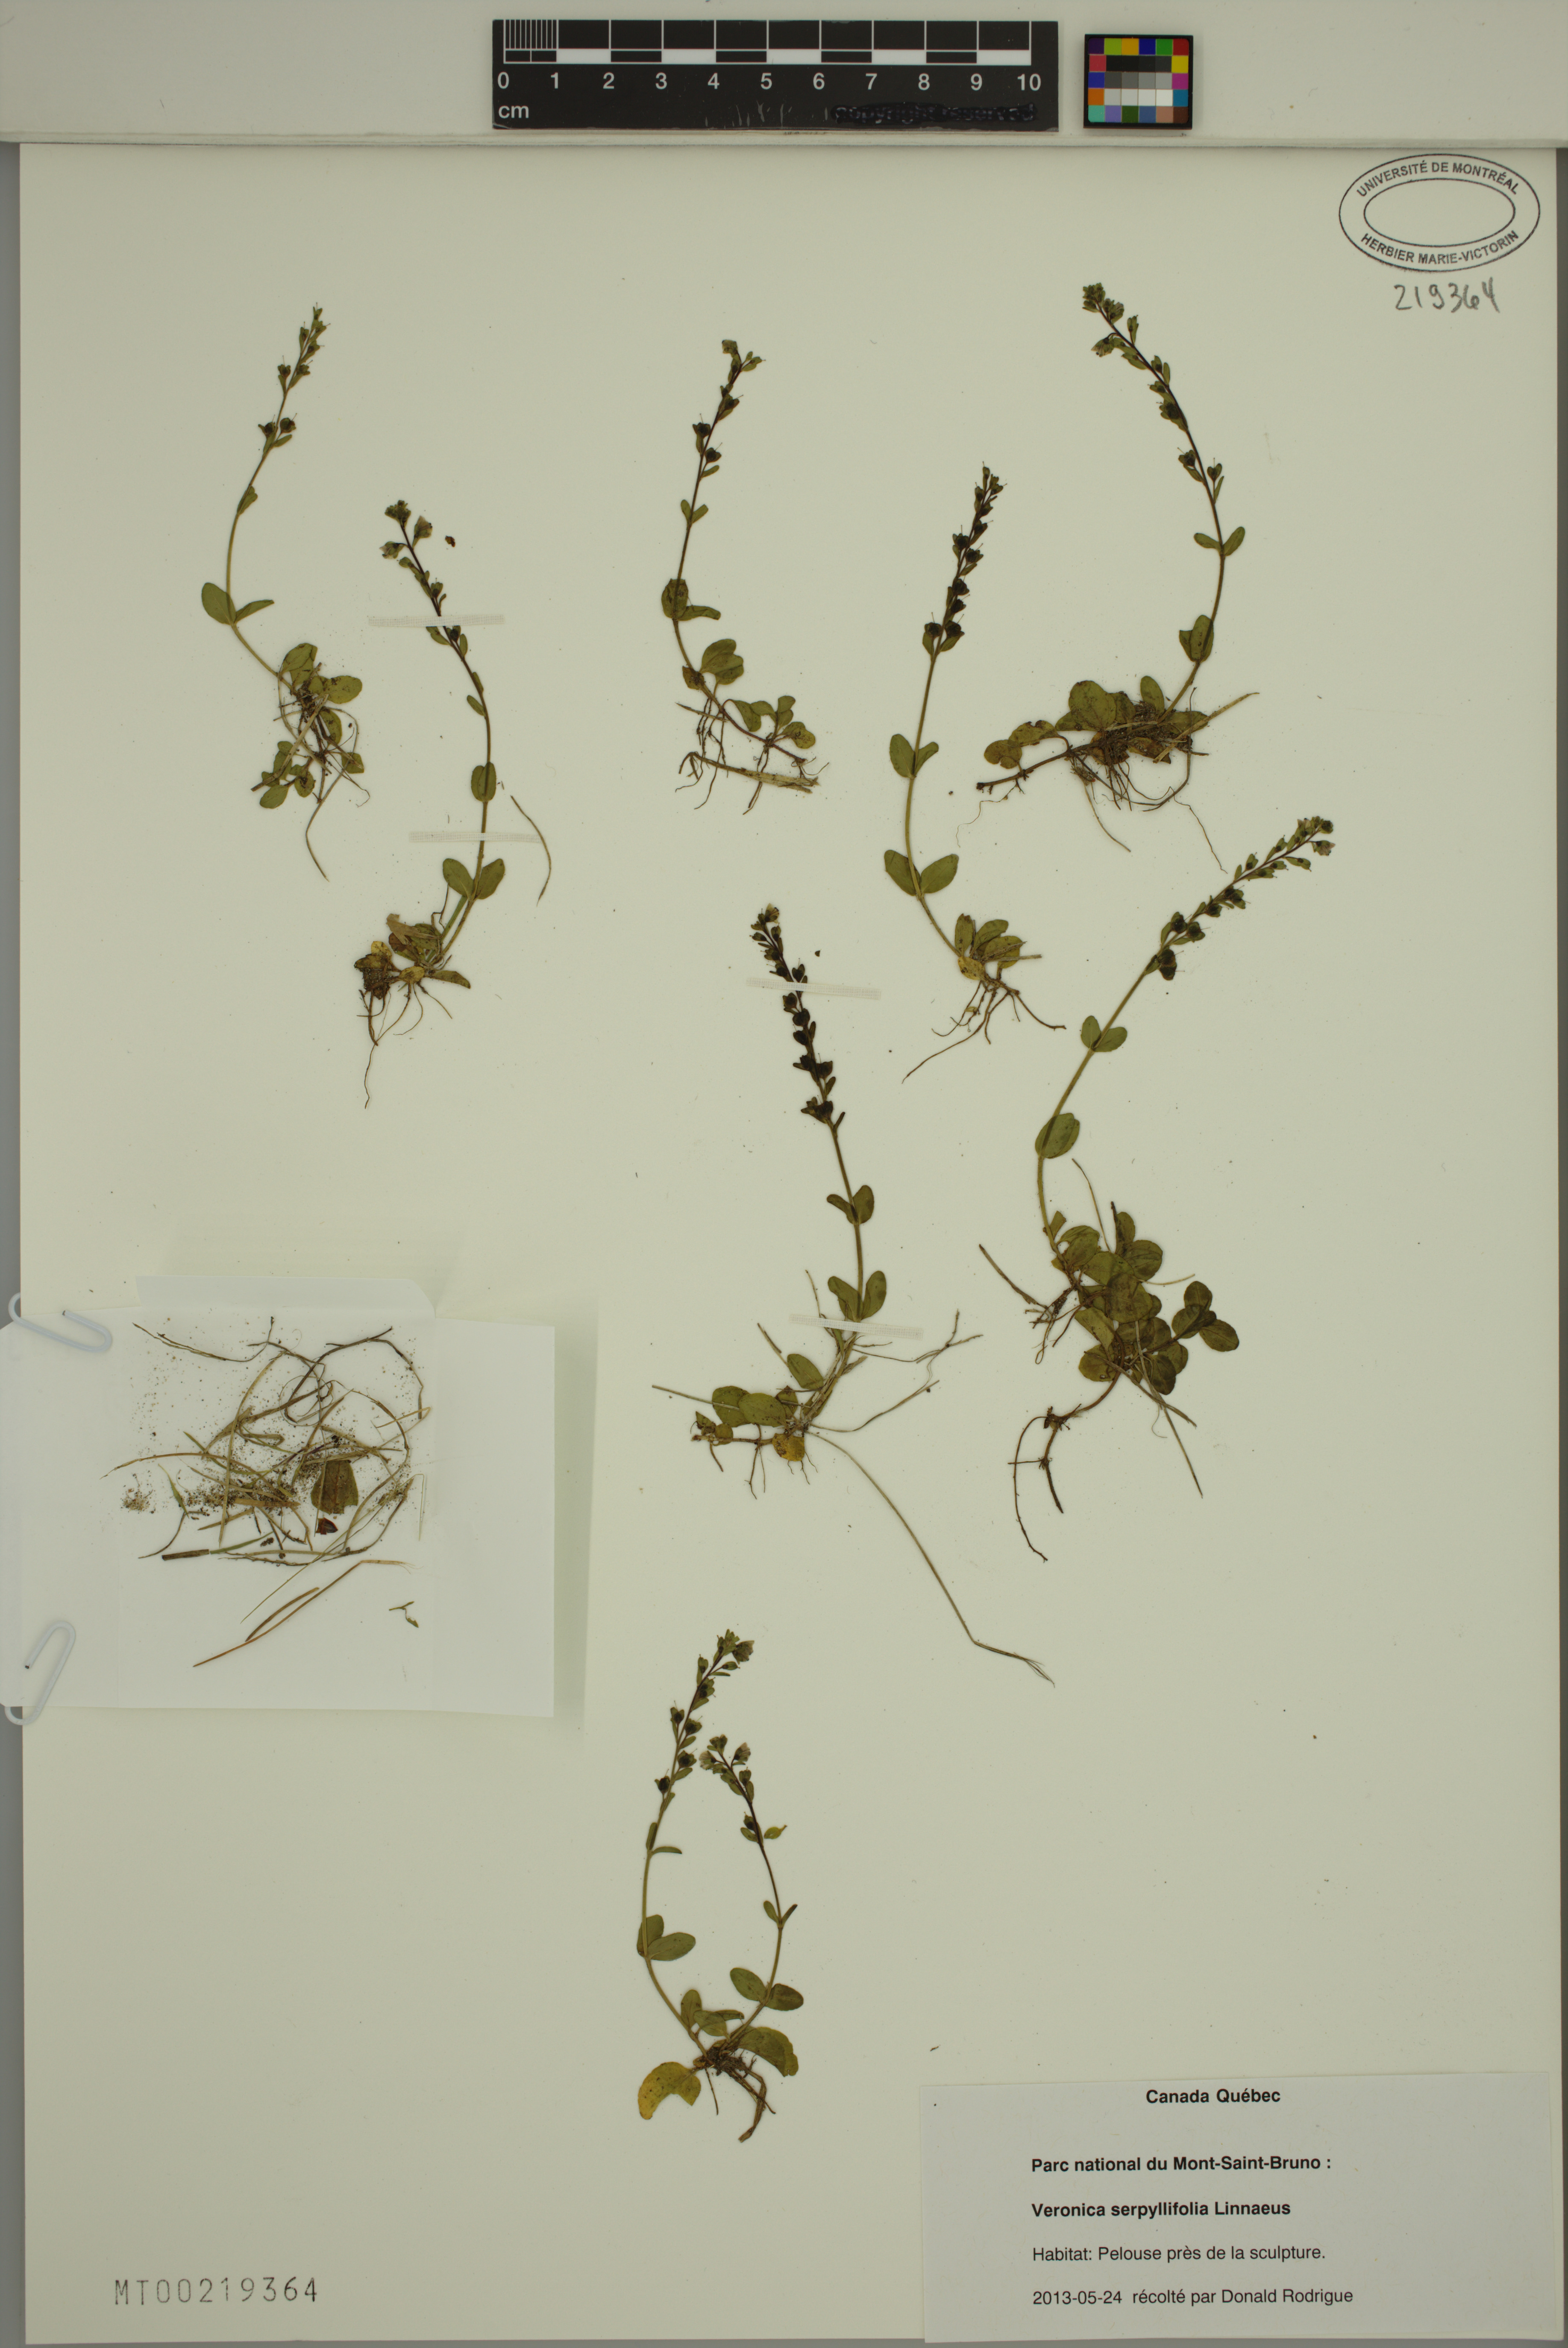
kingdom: Plantae
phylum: Tracheophyta
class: Magnoliopsida
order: Lamiales
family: Plantaginaceae
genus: Veronica
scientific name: Veronica serpyllifolia
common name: Thyme-leaved speedwell
